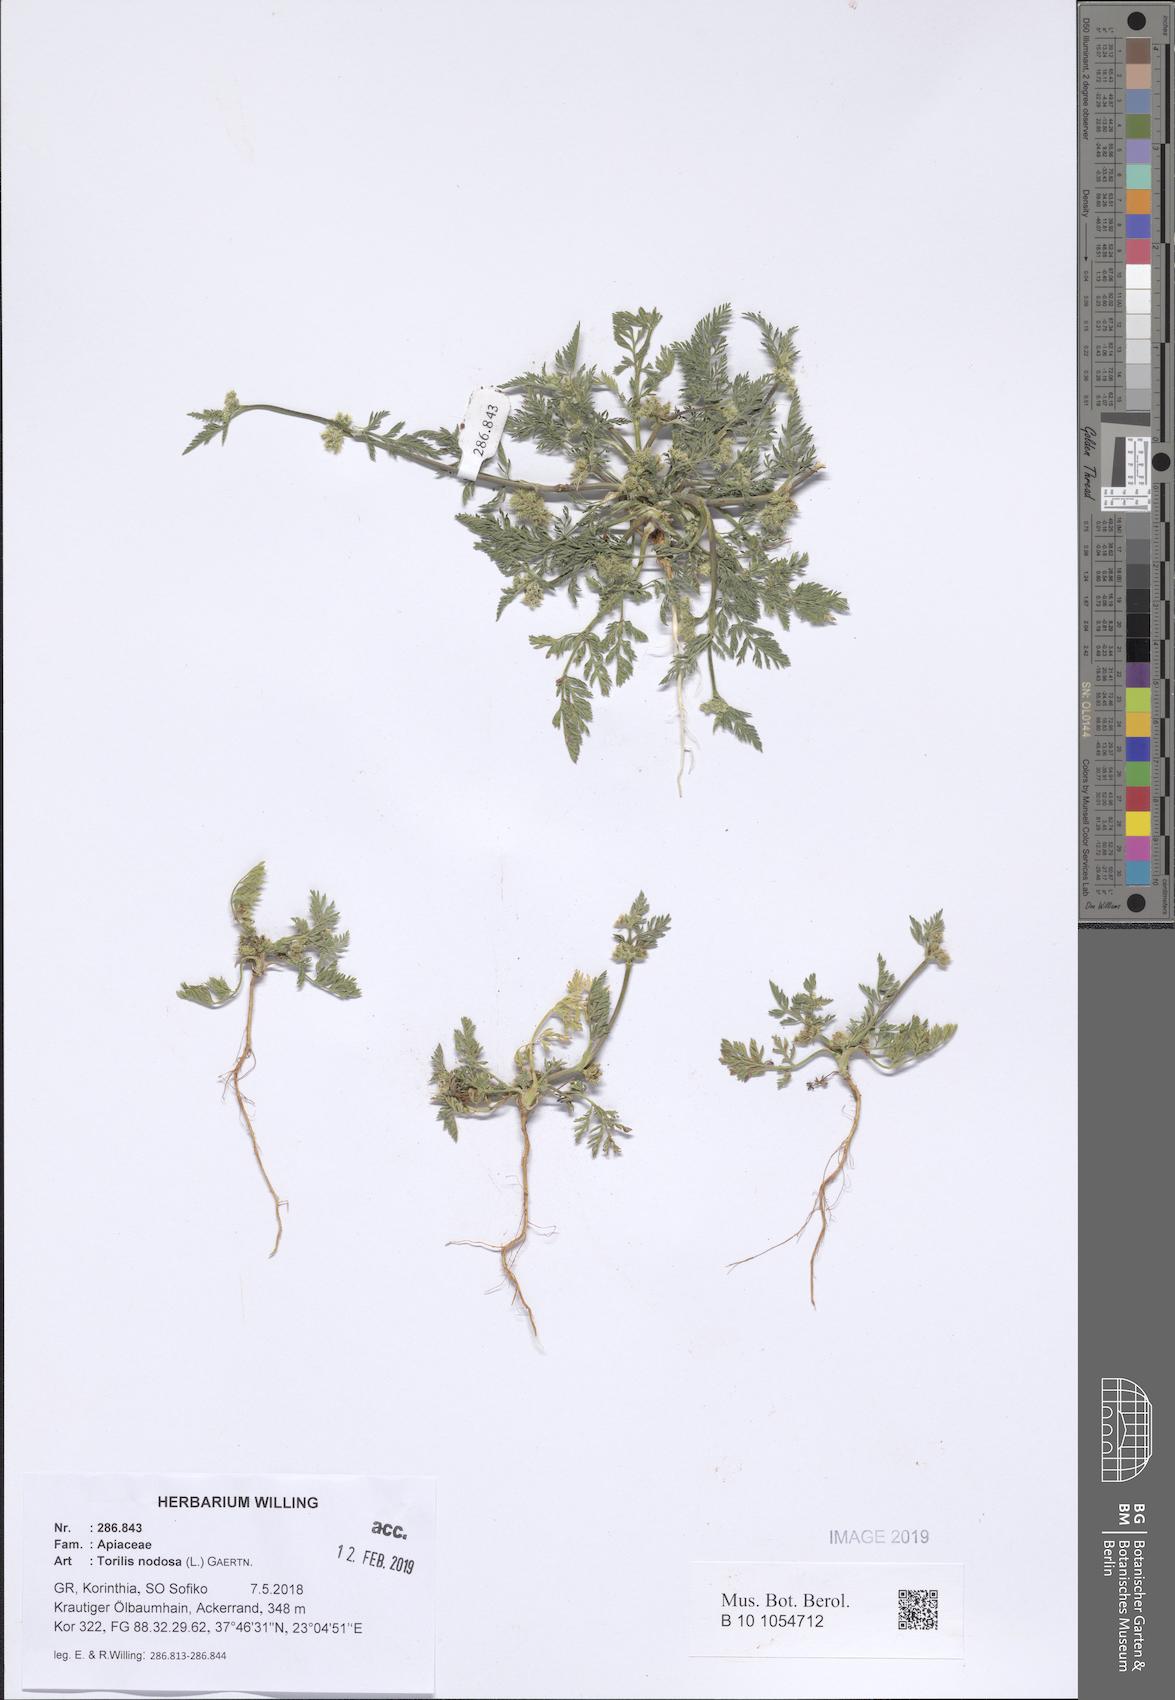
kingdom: Plantae
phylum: Tracheophyta
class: Magnoliopsida
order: Apiales
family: Apiaceae
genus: Torilis
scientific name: Torilis nodosa
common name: Knotted hedge-parsley
